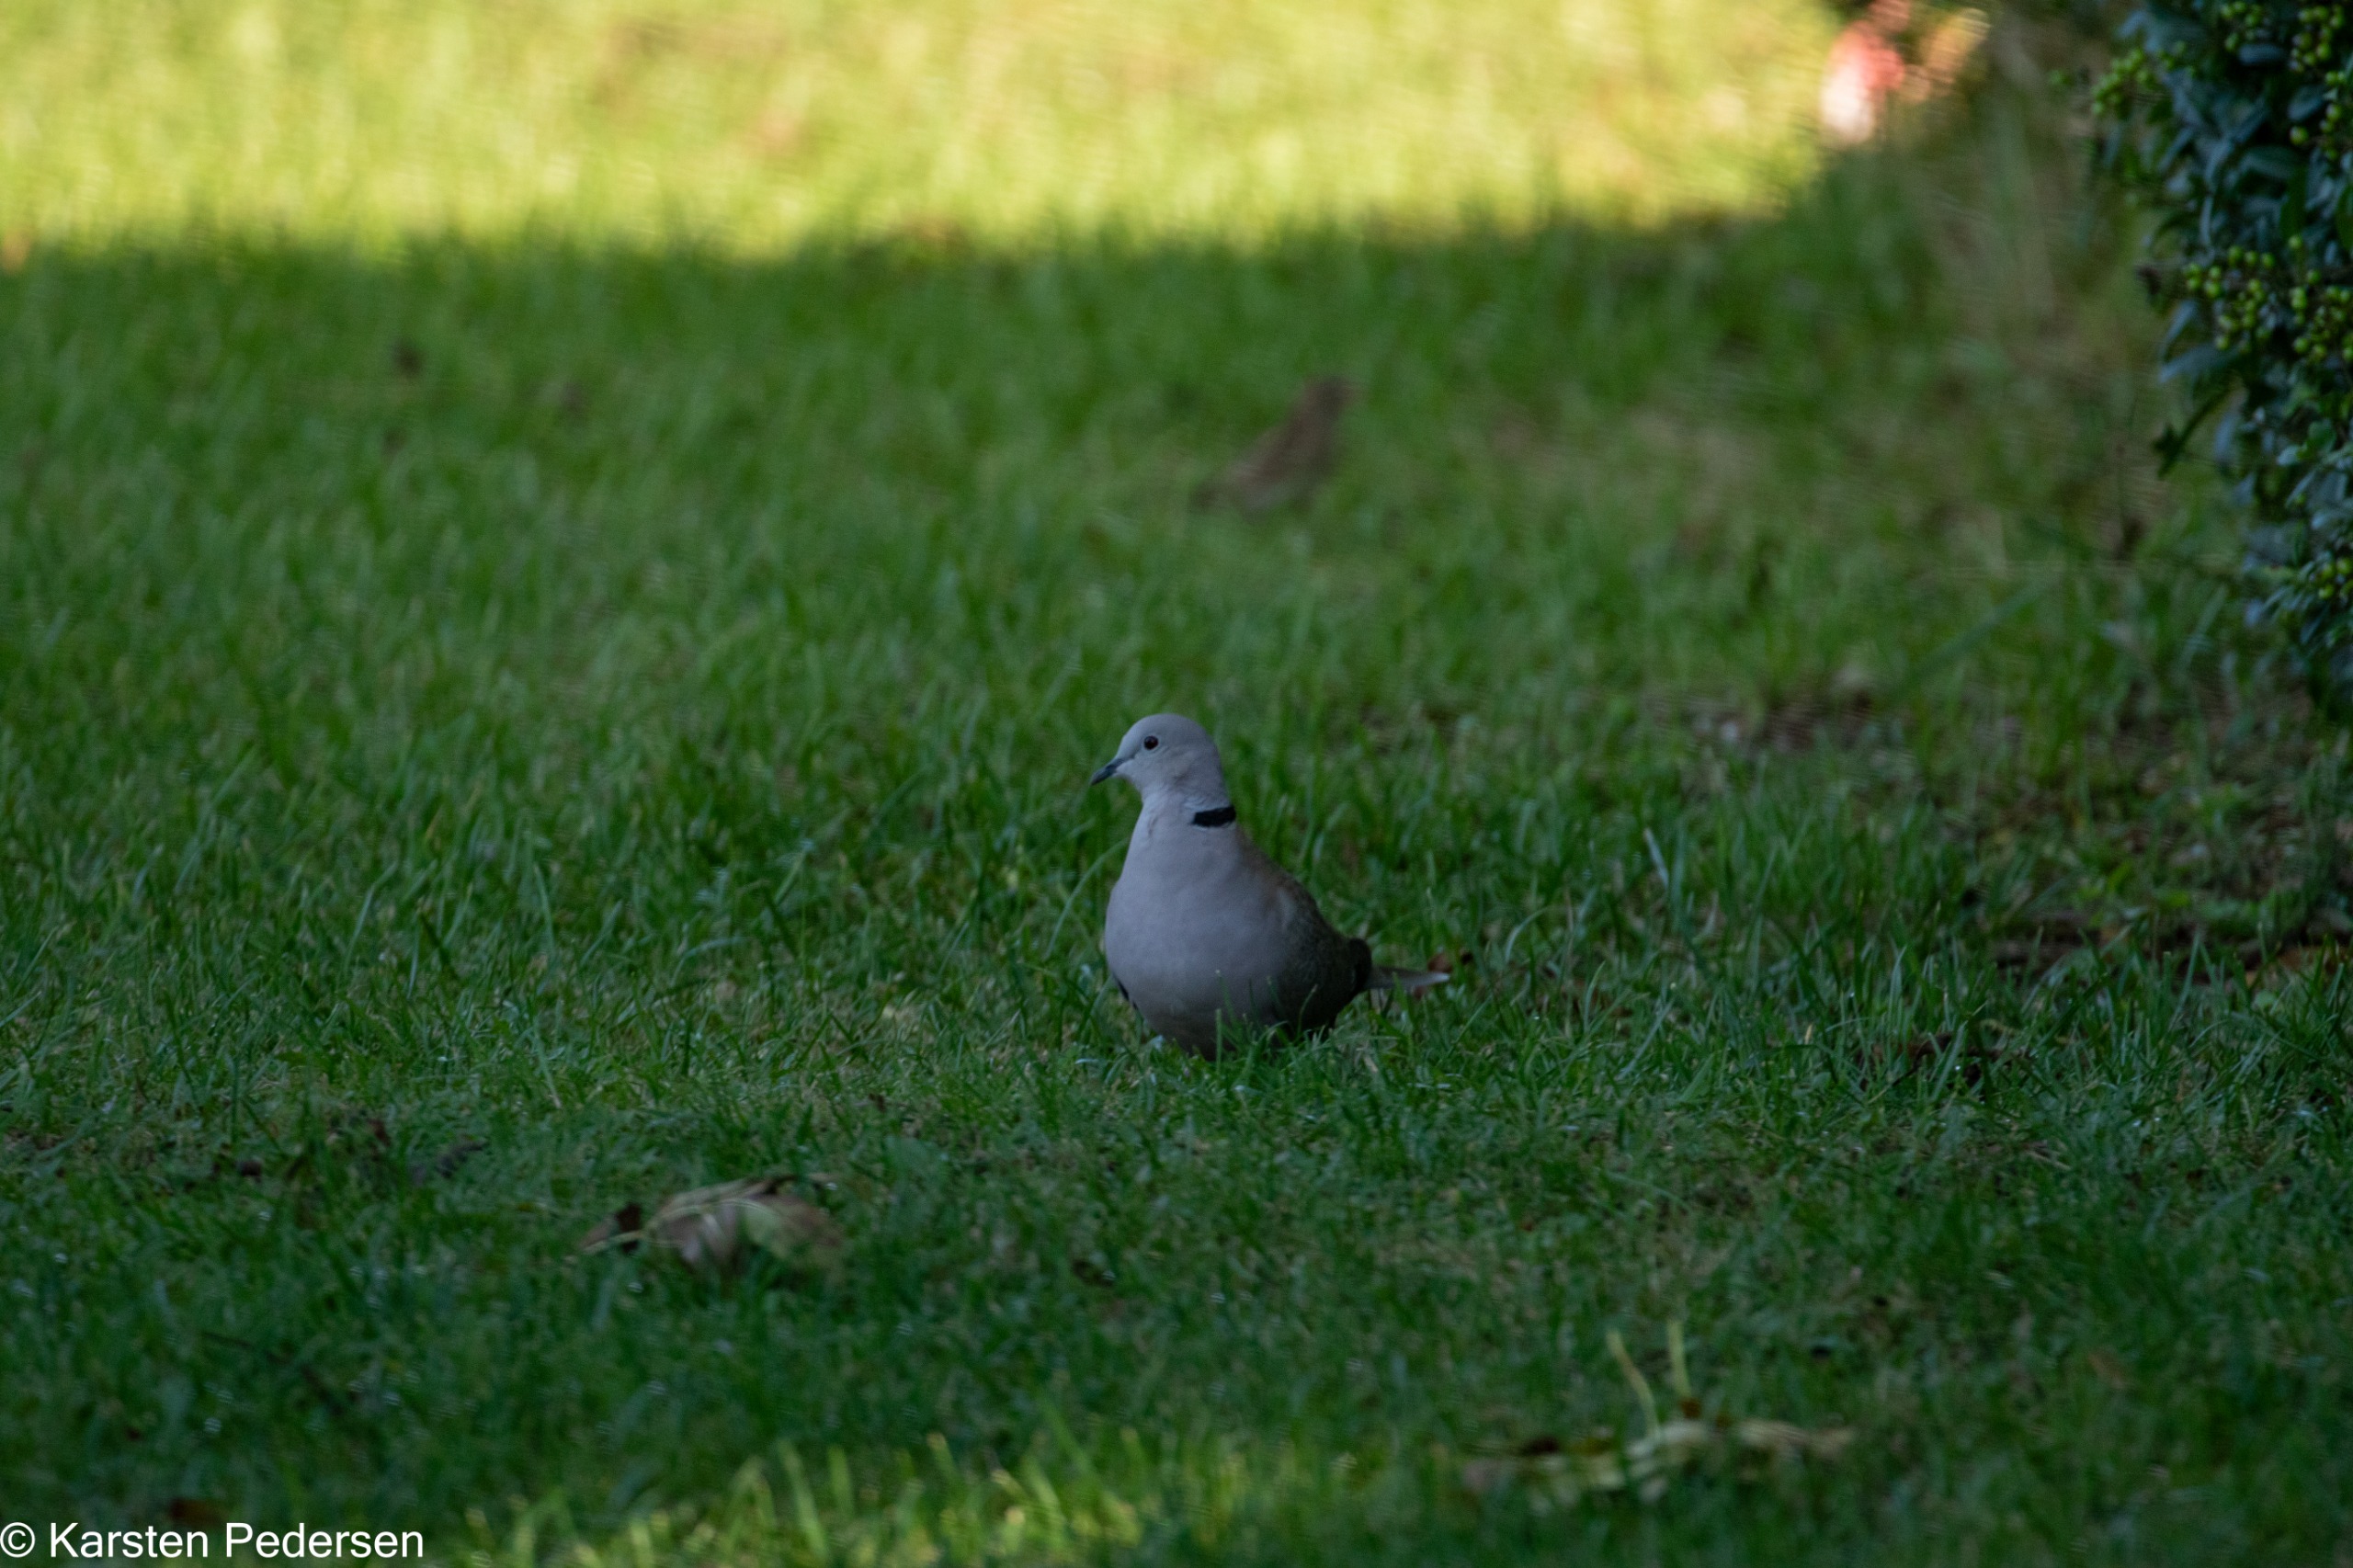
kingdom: Animalia
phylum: Chordata
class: Aves
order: Columbiformes
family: Columbidae
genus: Streptopelia
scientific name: Streptopelia decaocto
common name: Tyrkerdue
